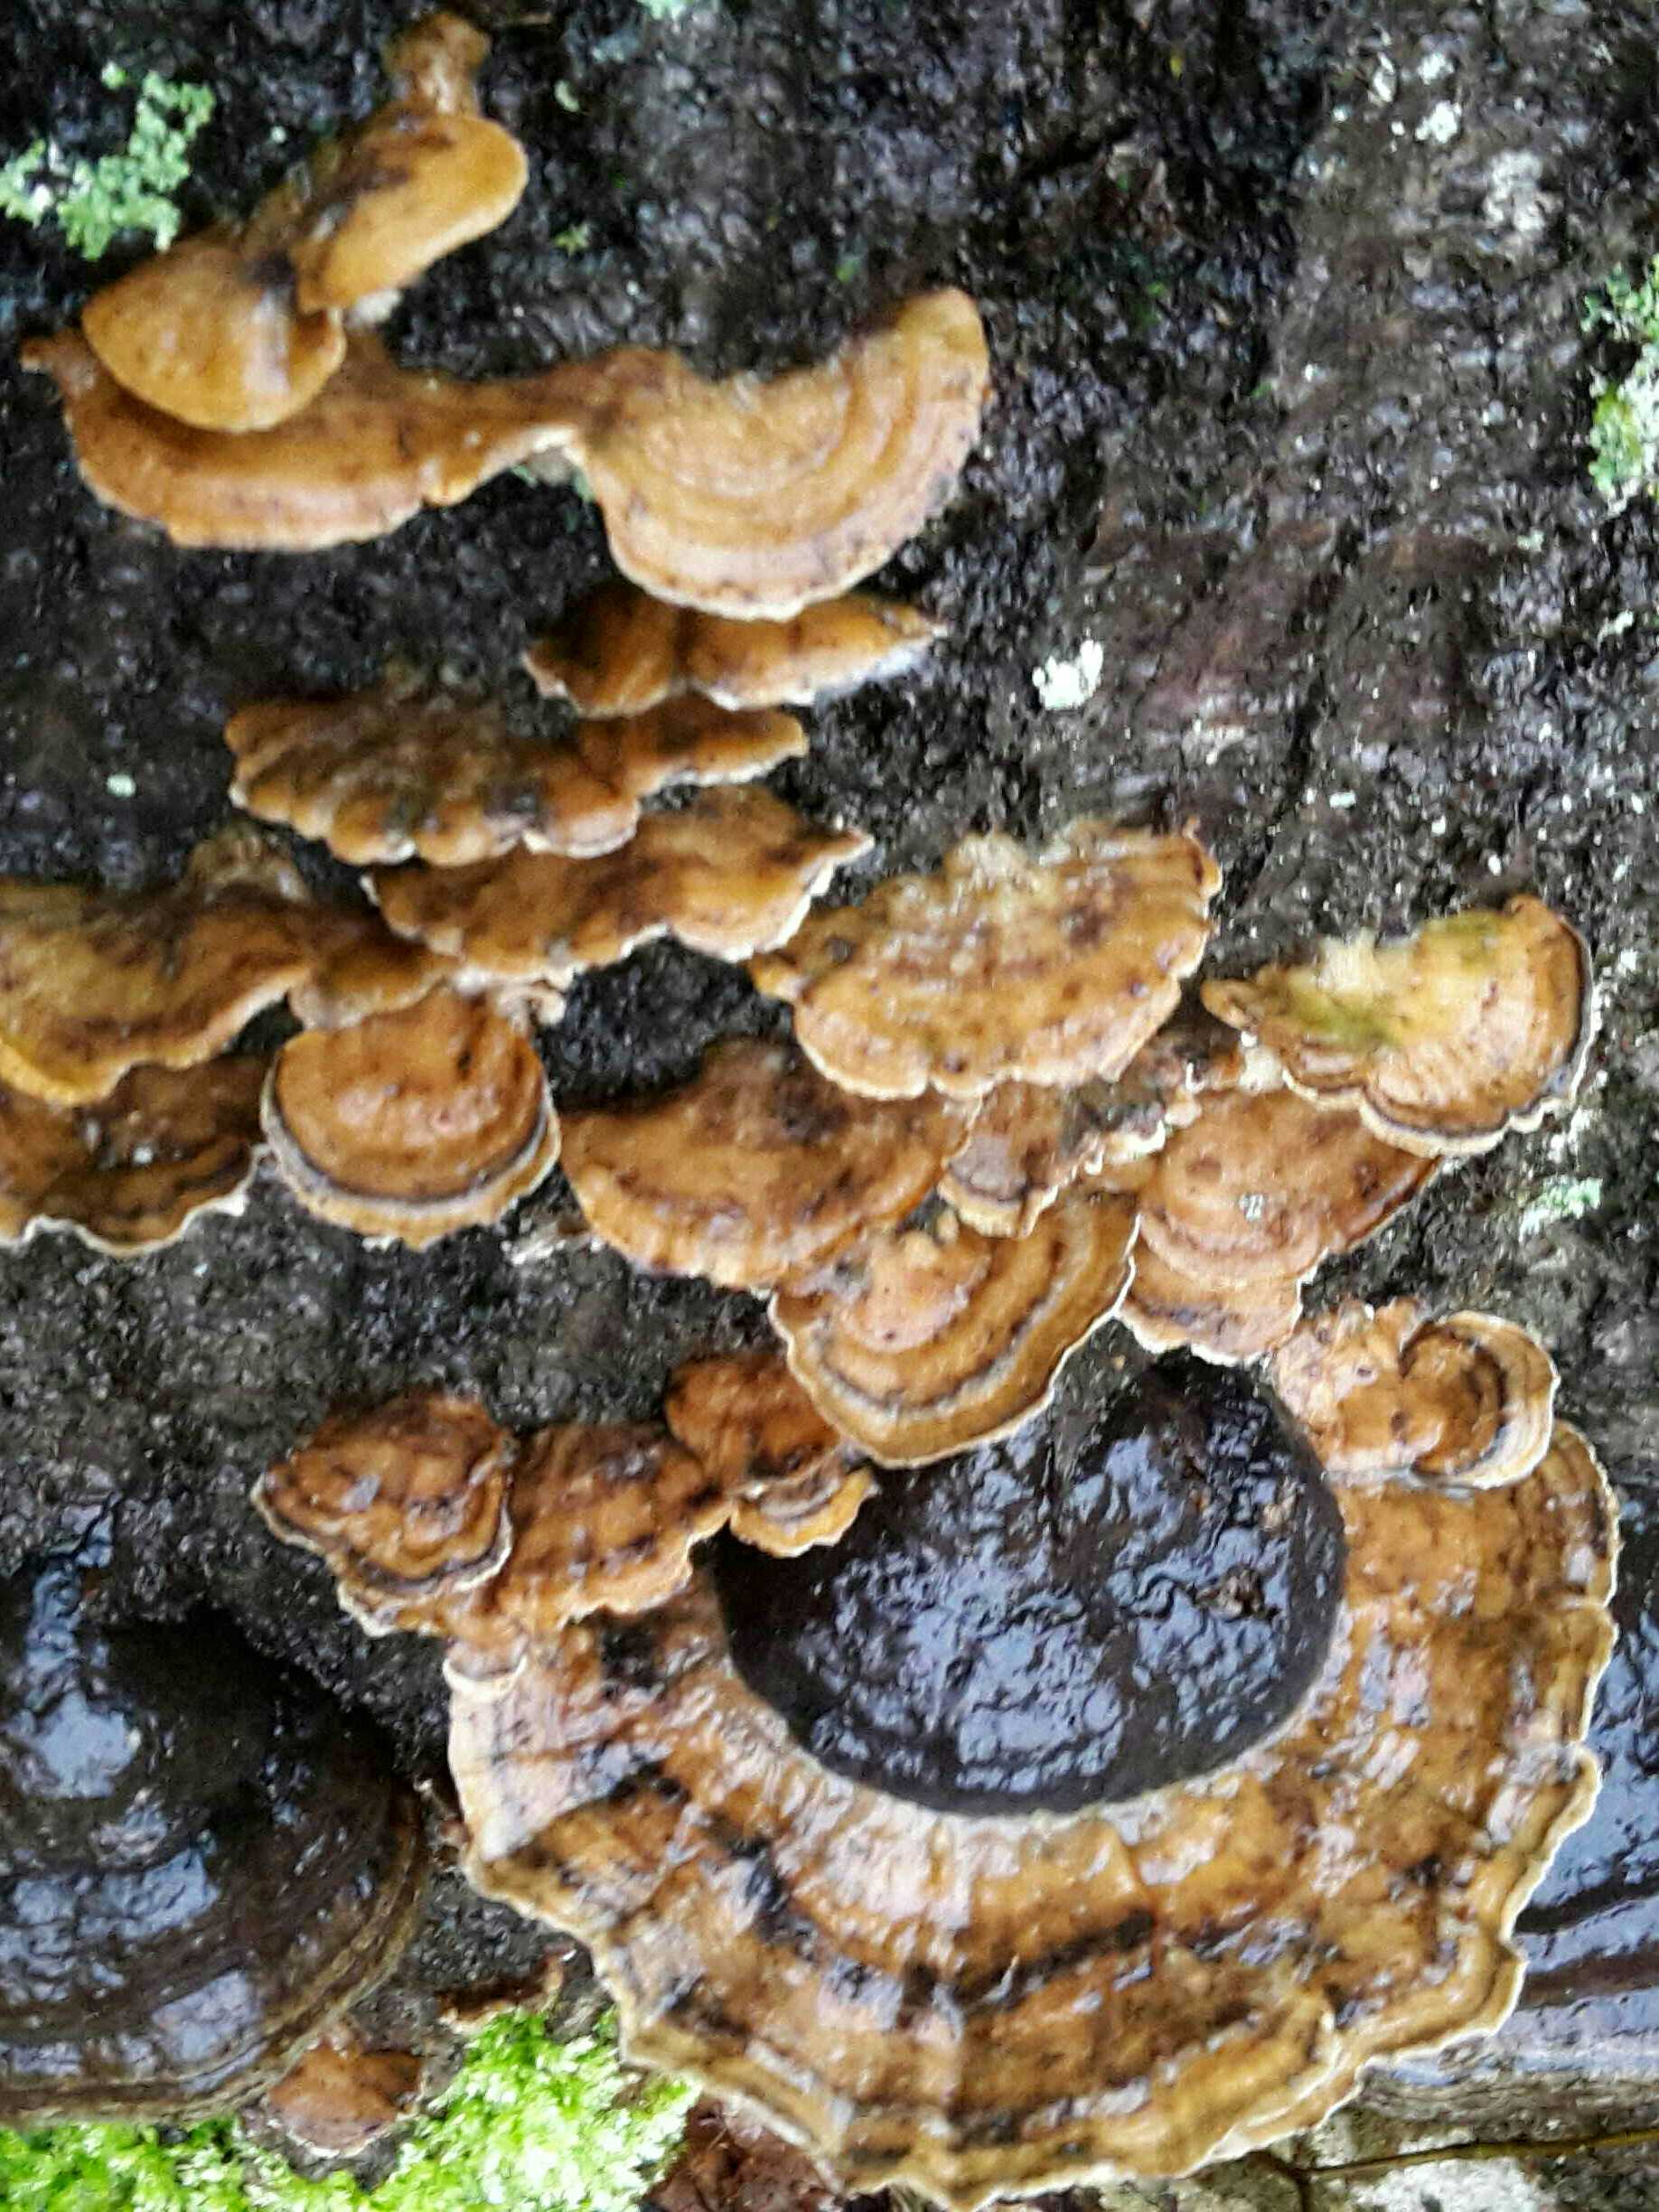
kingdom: Fungi
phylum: Basidiomycota
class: Agaricomycetes
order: Polyporales
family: Phanerochaetaceae
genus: Bjerkandera
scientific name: Bjerkandera adusta
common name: sveden sodporesvamp
